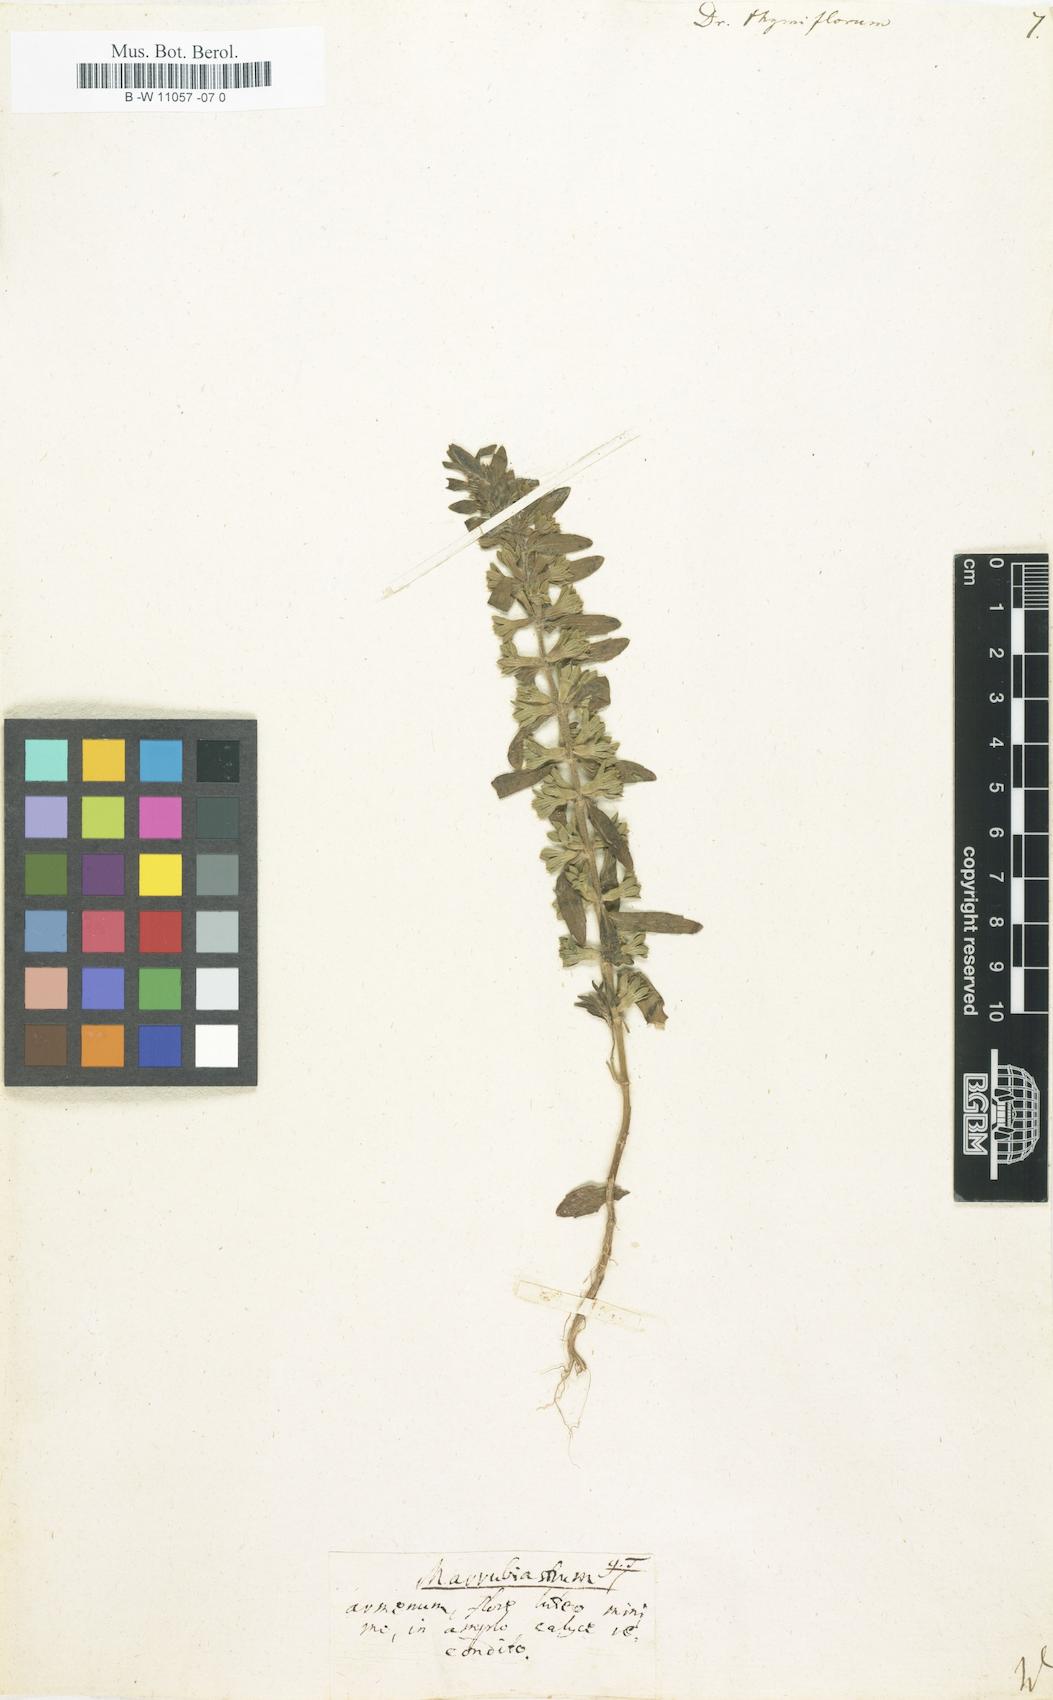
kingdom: Plantae
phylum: Tracheophyta
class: Magnoliopsida
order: Lamiales
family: Lamiaceae
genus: Dracocephalum
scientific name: Dracocephalum thymiflorum
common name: Thymeleaf dragonhead
